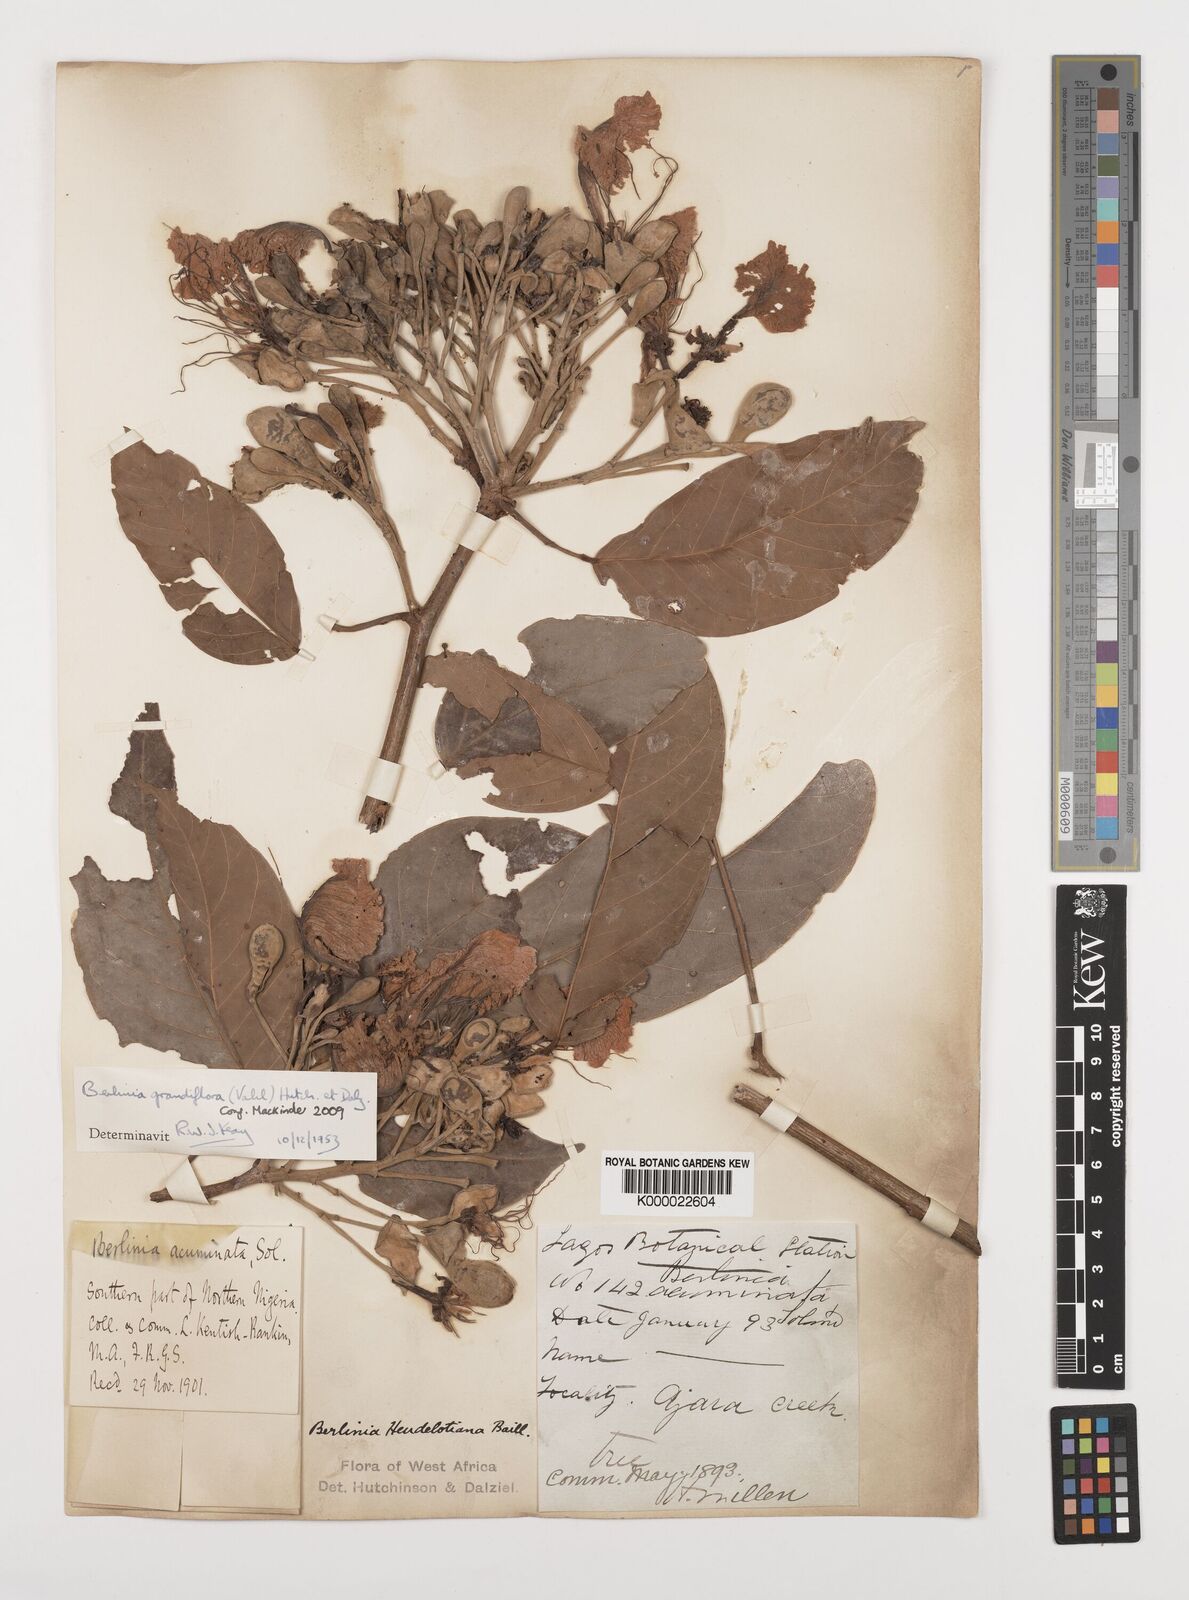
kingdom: Plantae
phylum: Tracheophyta
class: Magnoliopsida
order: Fabales
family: Fabaceae
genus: Berlinia
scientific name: Berlinia grandiflora
